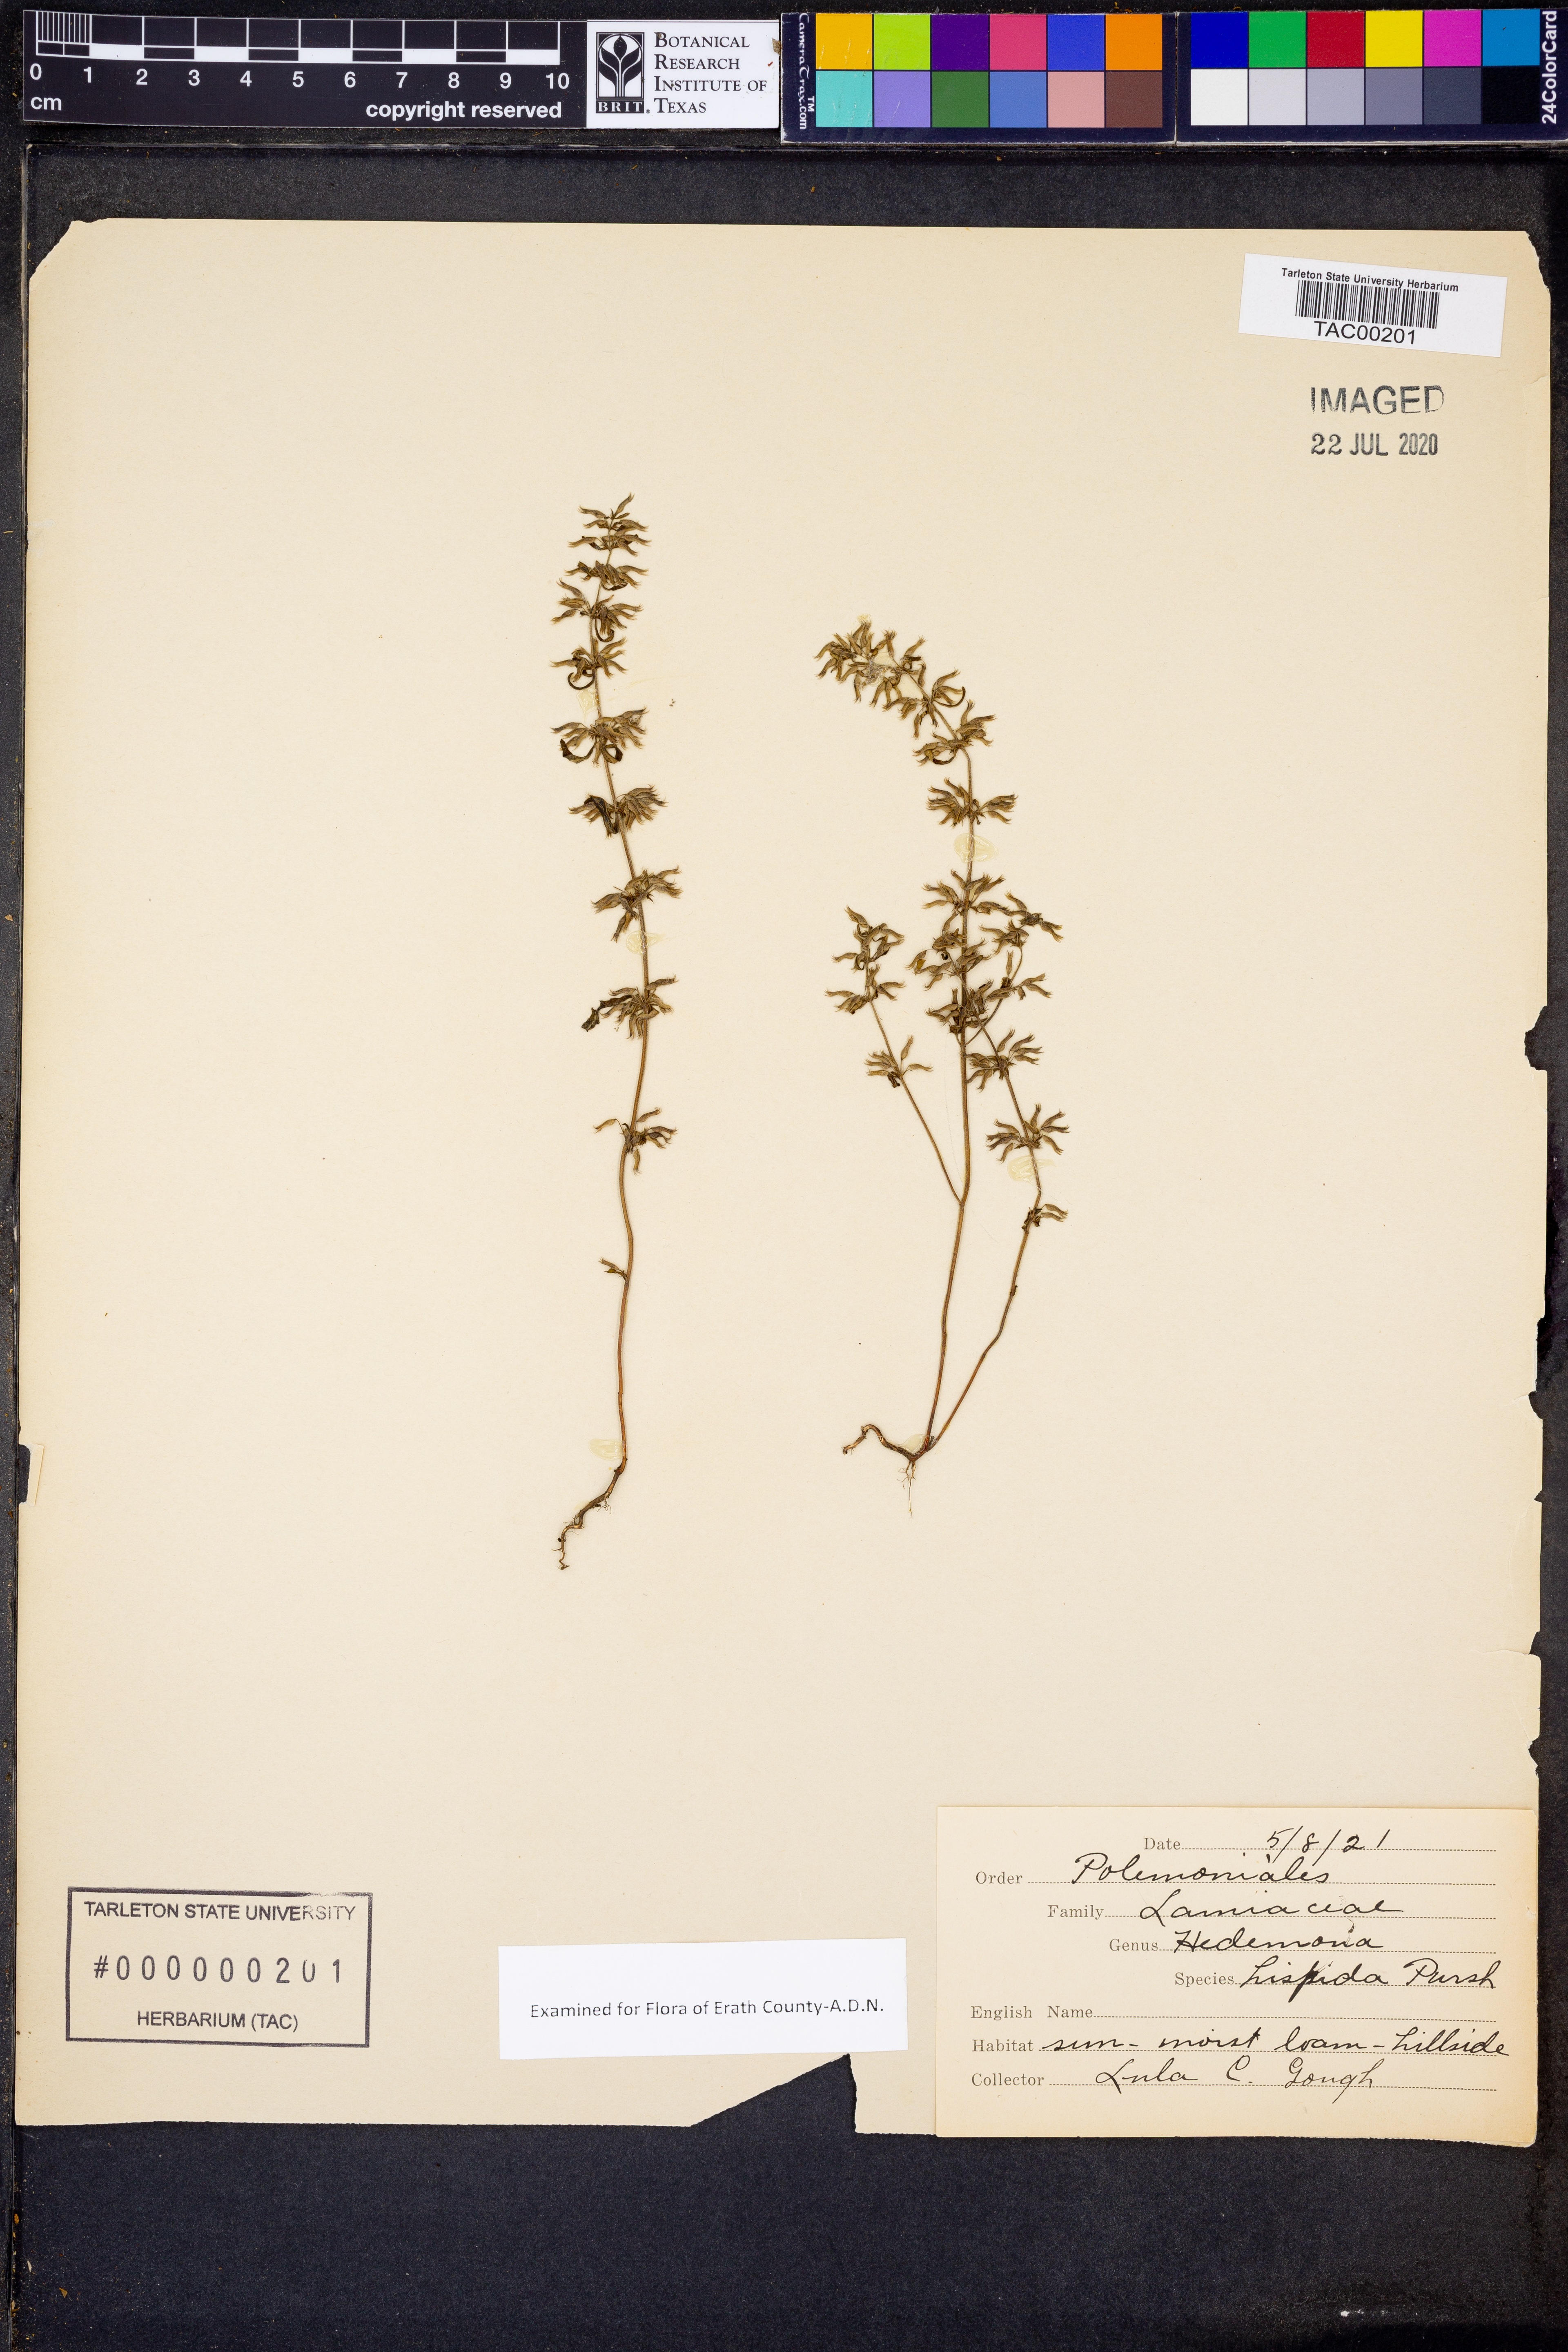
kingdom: Plantae
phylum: Tracheophyta
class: Magnoliopsida
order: Lamiales
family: Lamiaceae
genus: Hedeoma
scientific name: Hedeoma hispida
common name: Mock pennyroyal
